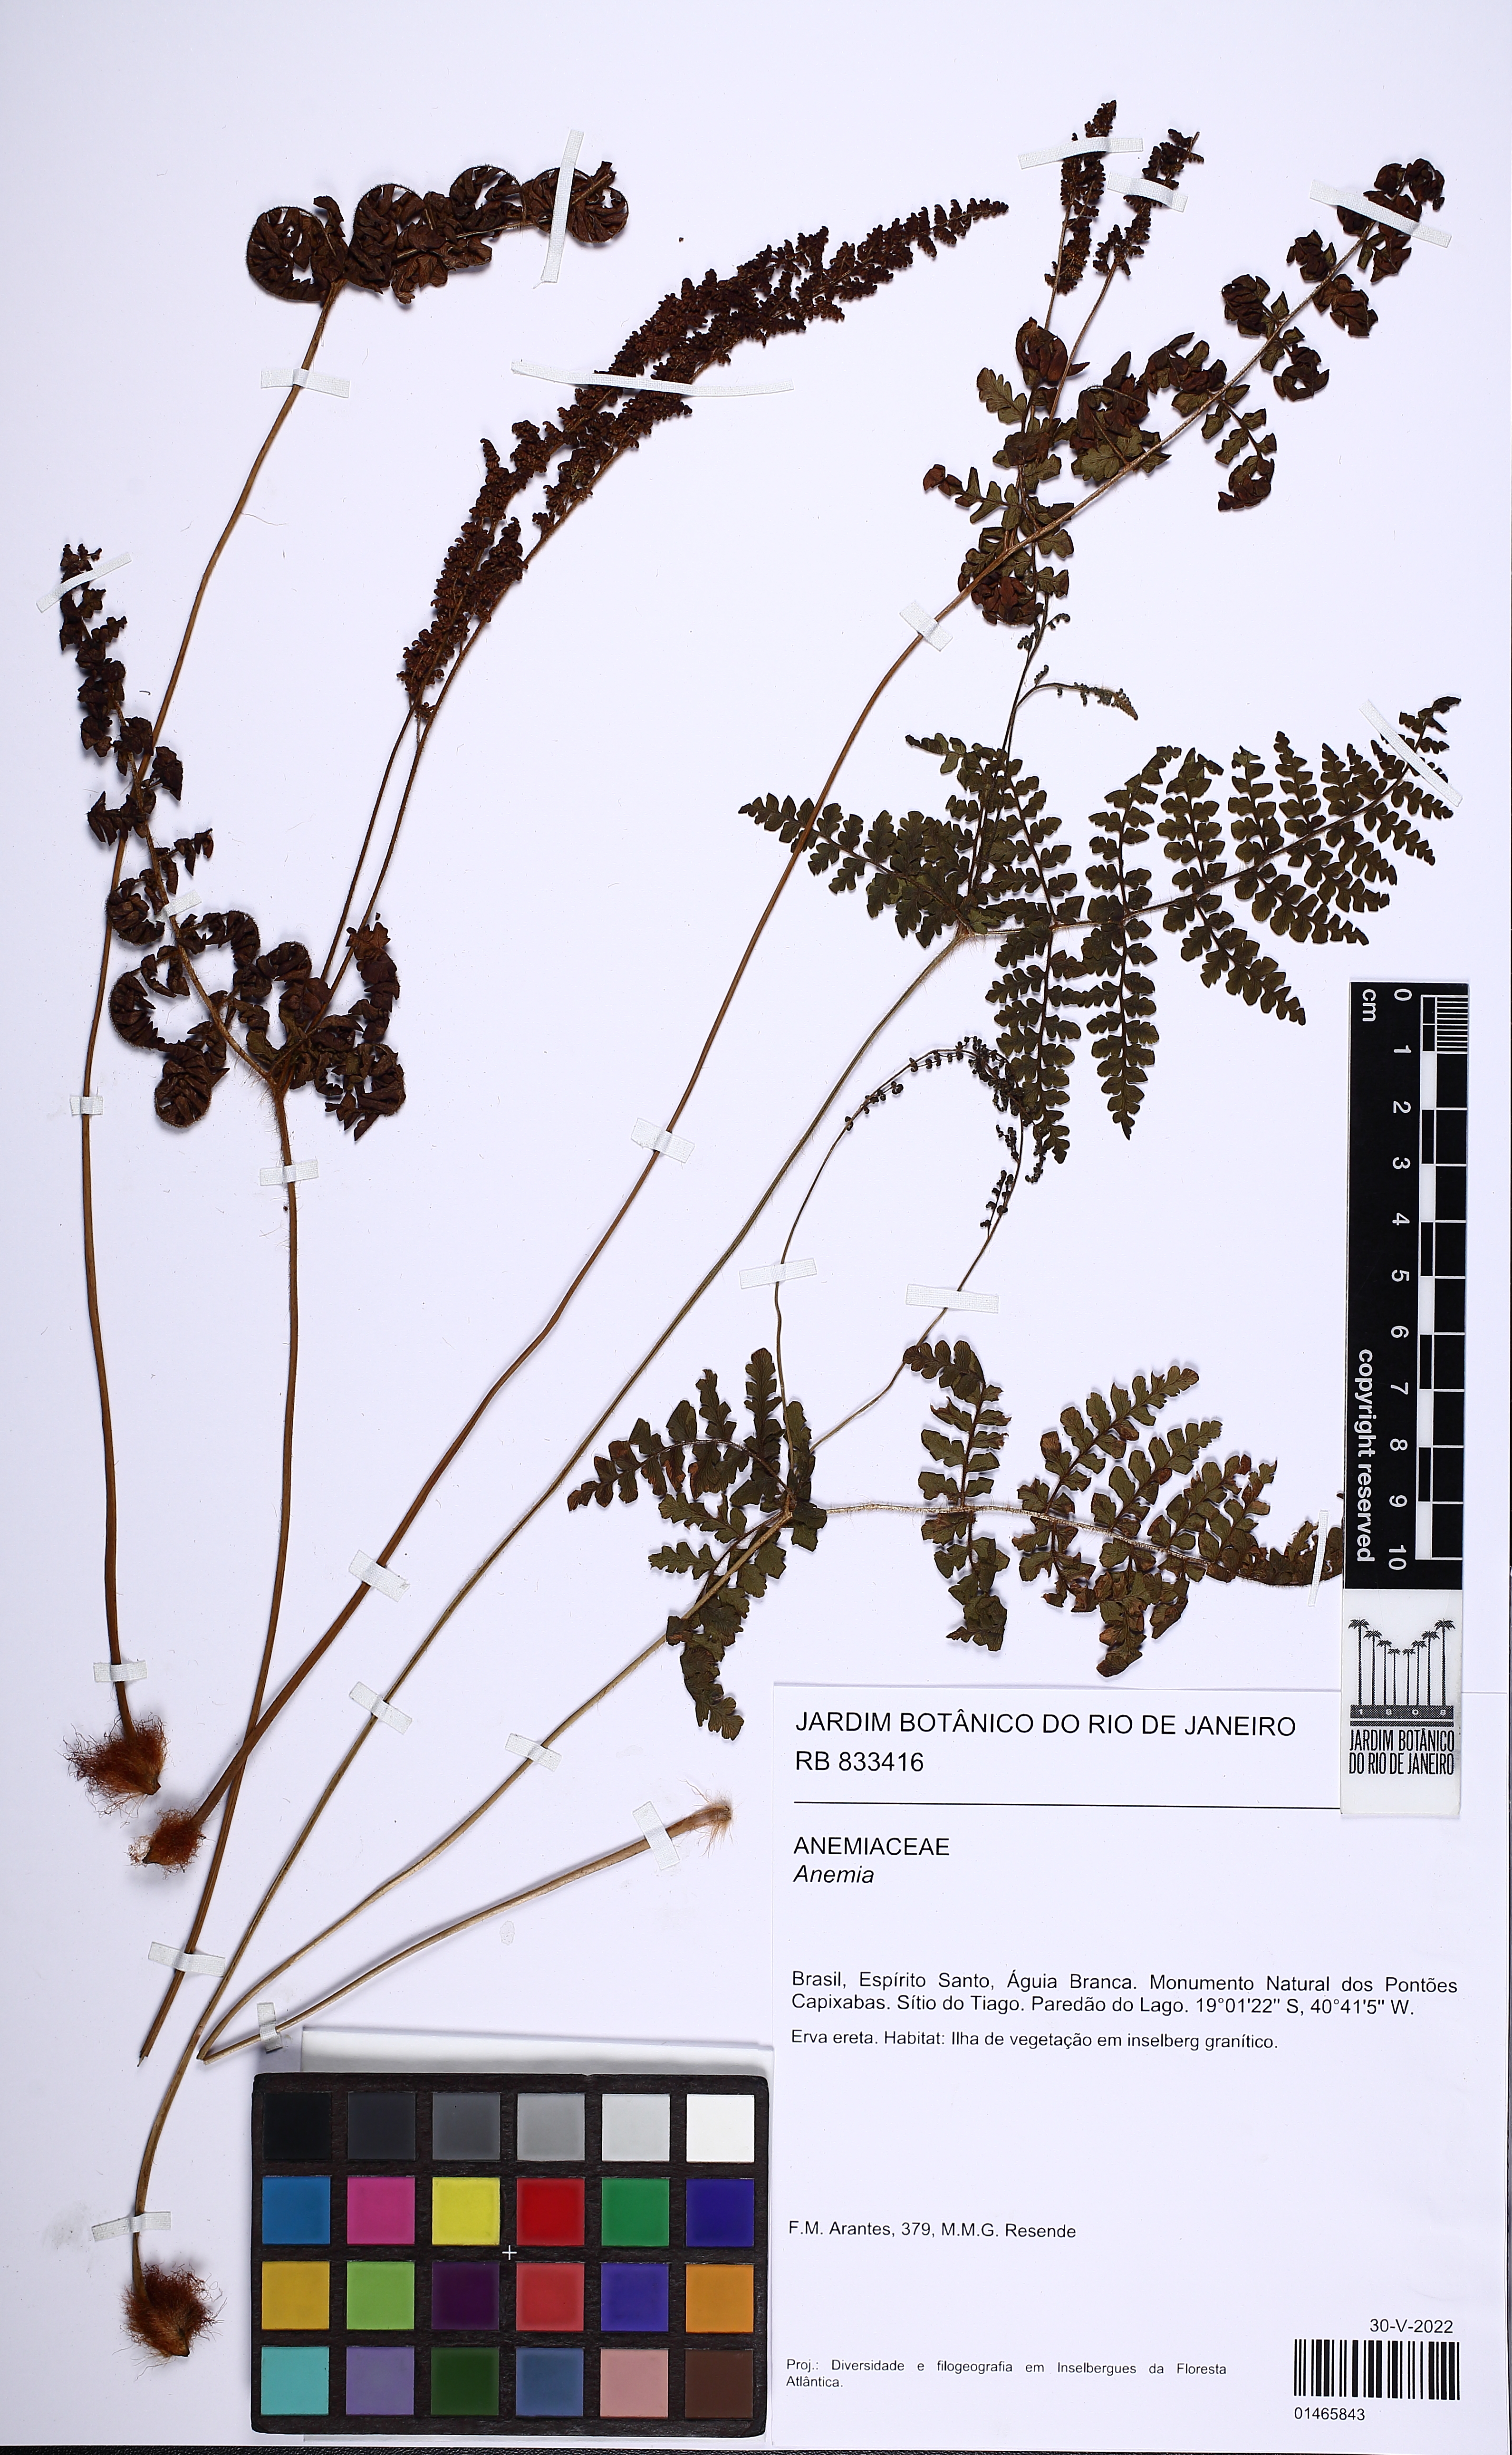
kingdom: Plantae
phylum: Tracheophyta
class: Polypodiopsida
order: Schizaeales
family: Anemiaceae
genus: Anemia
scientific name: Anemia patens
